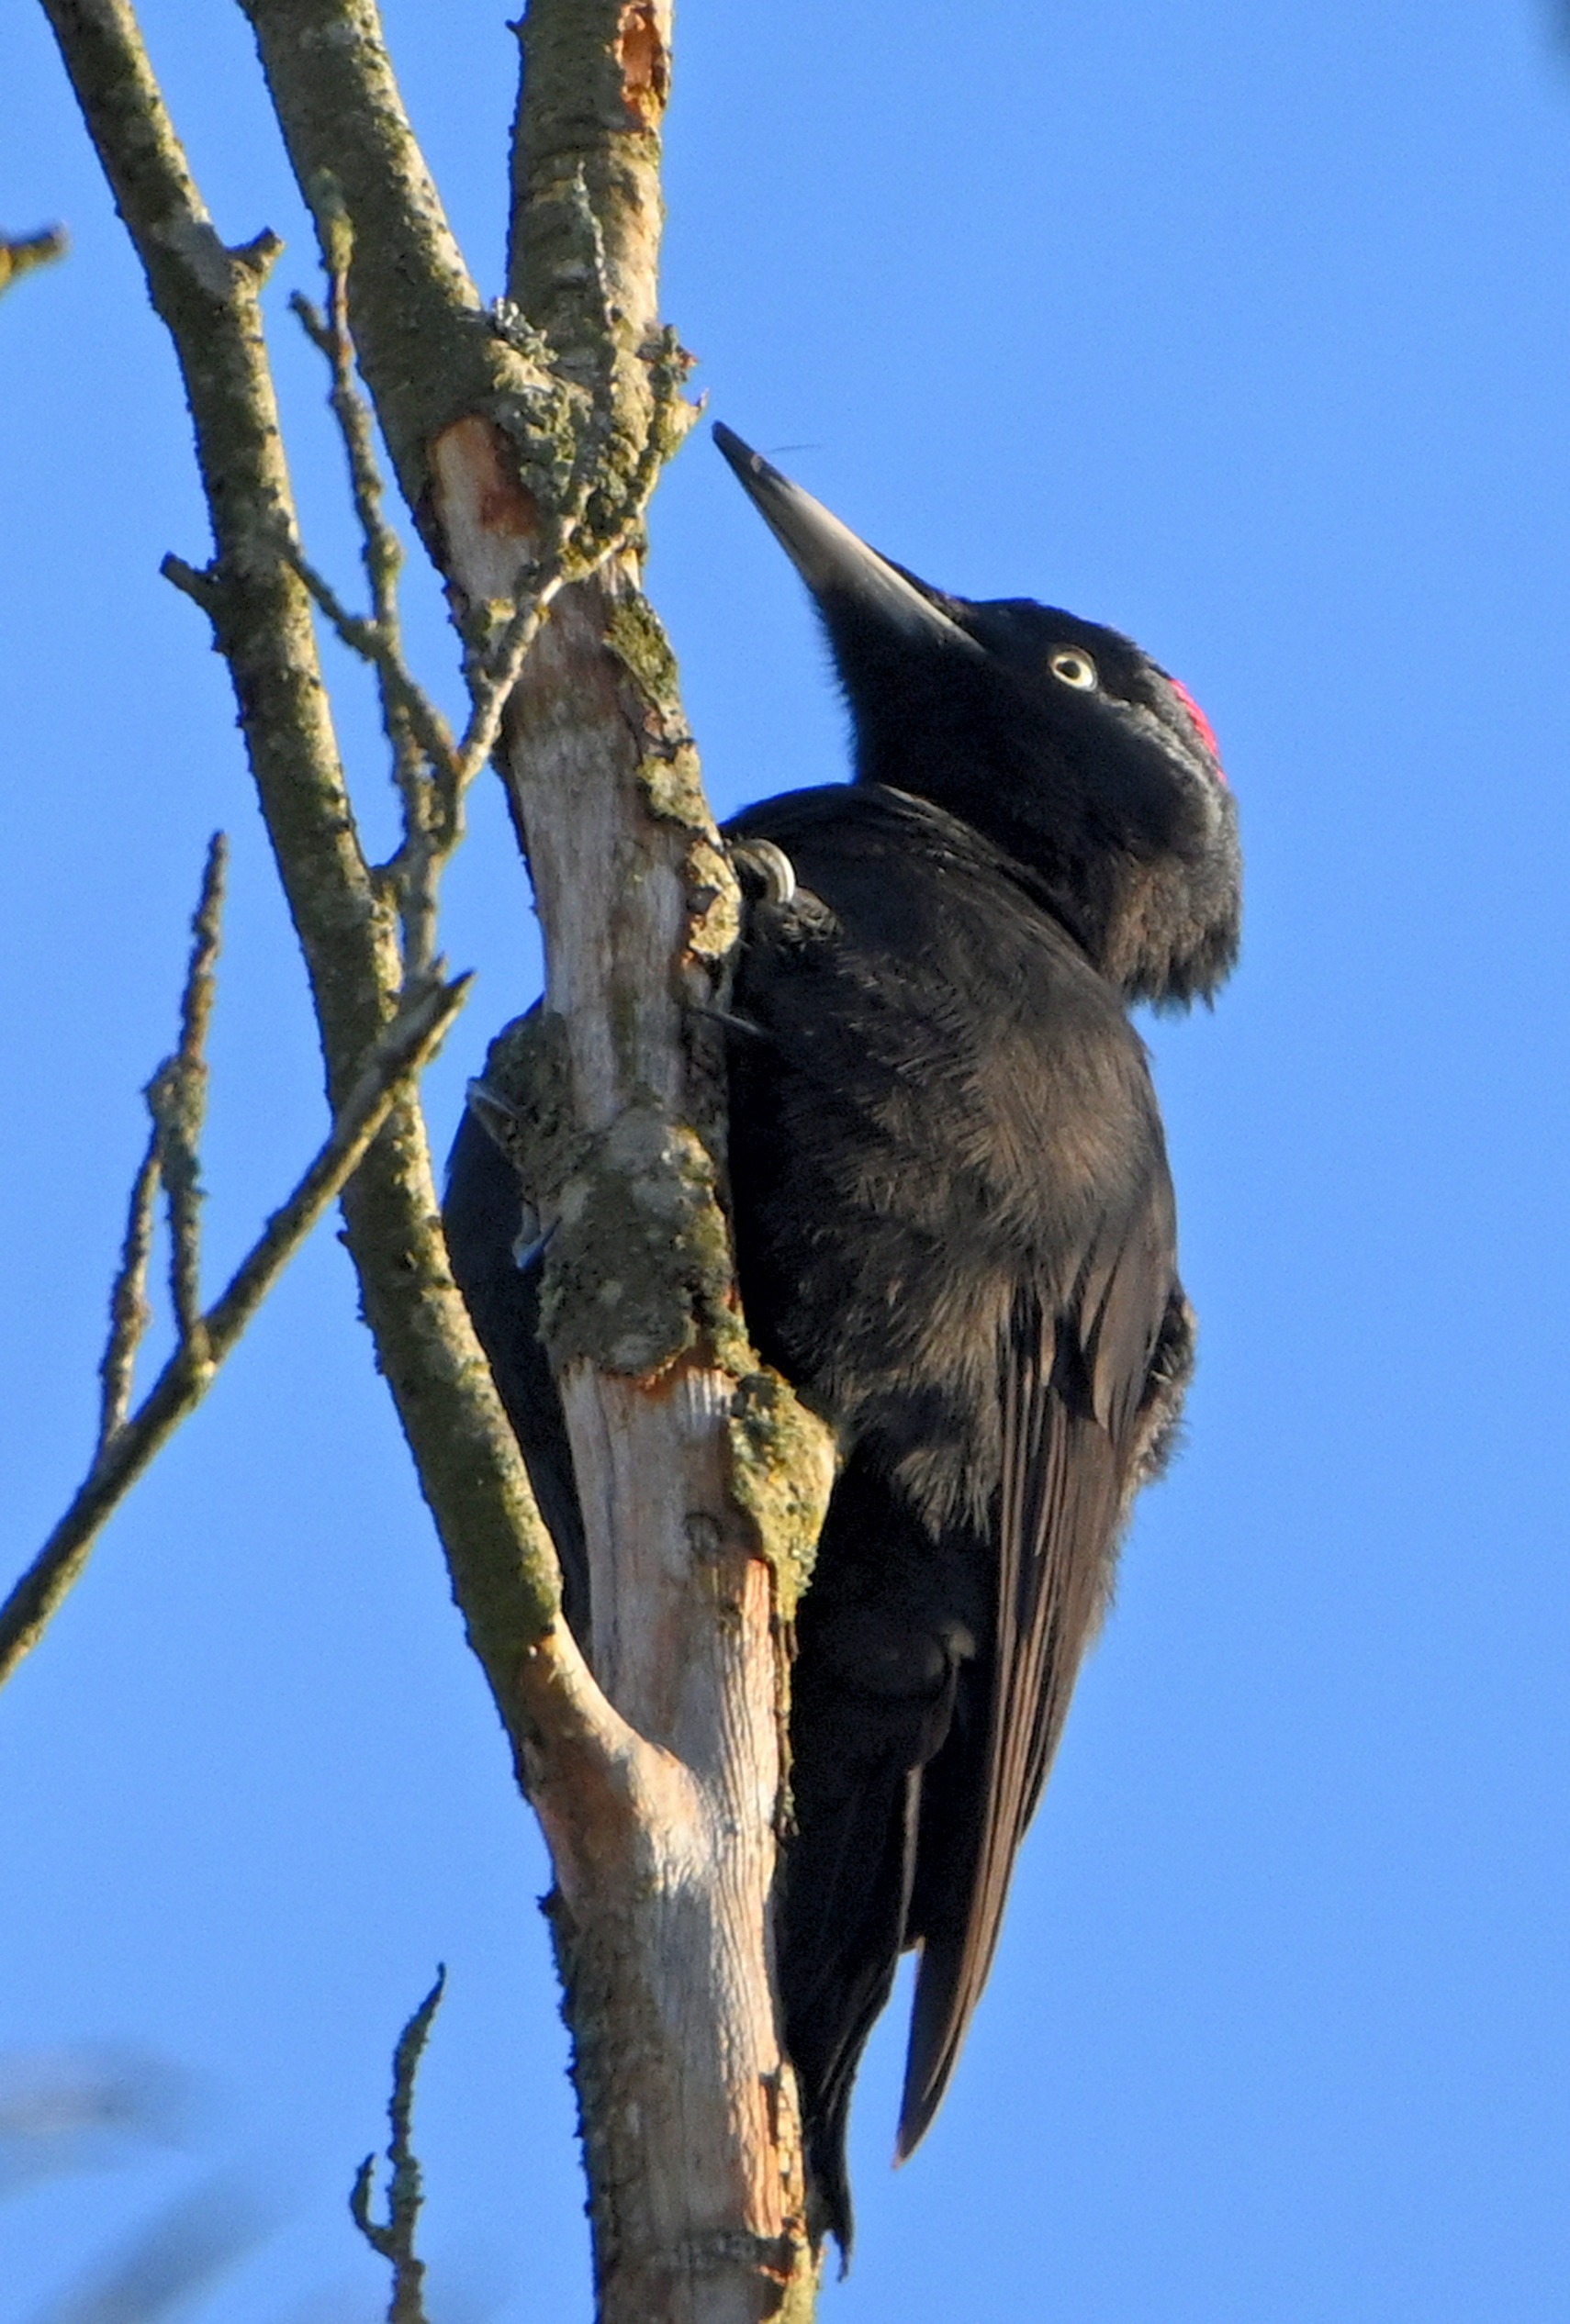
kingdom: Animalia
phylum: Chordata
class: Aves
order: Piciformes
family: Picidae
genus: Dryocopus
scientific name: Dryocopus martius
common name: Sortspætte
